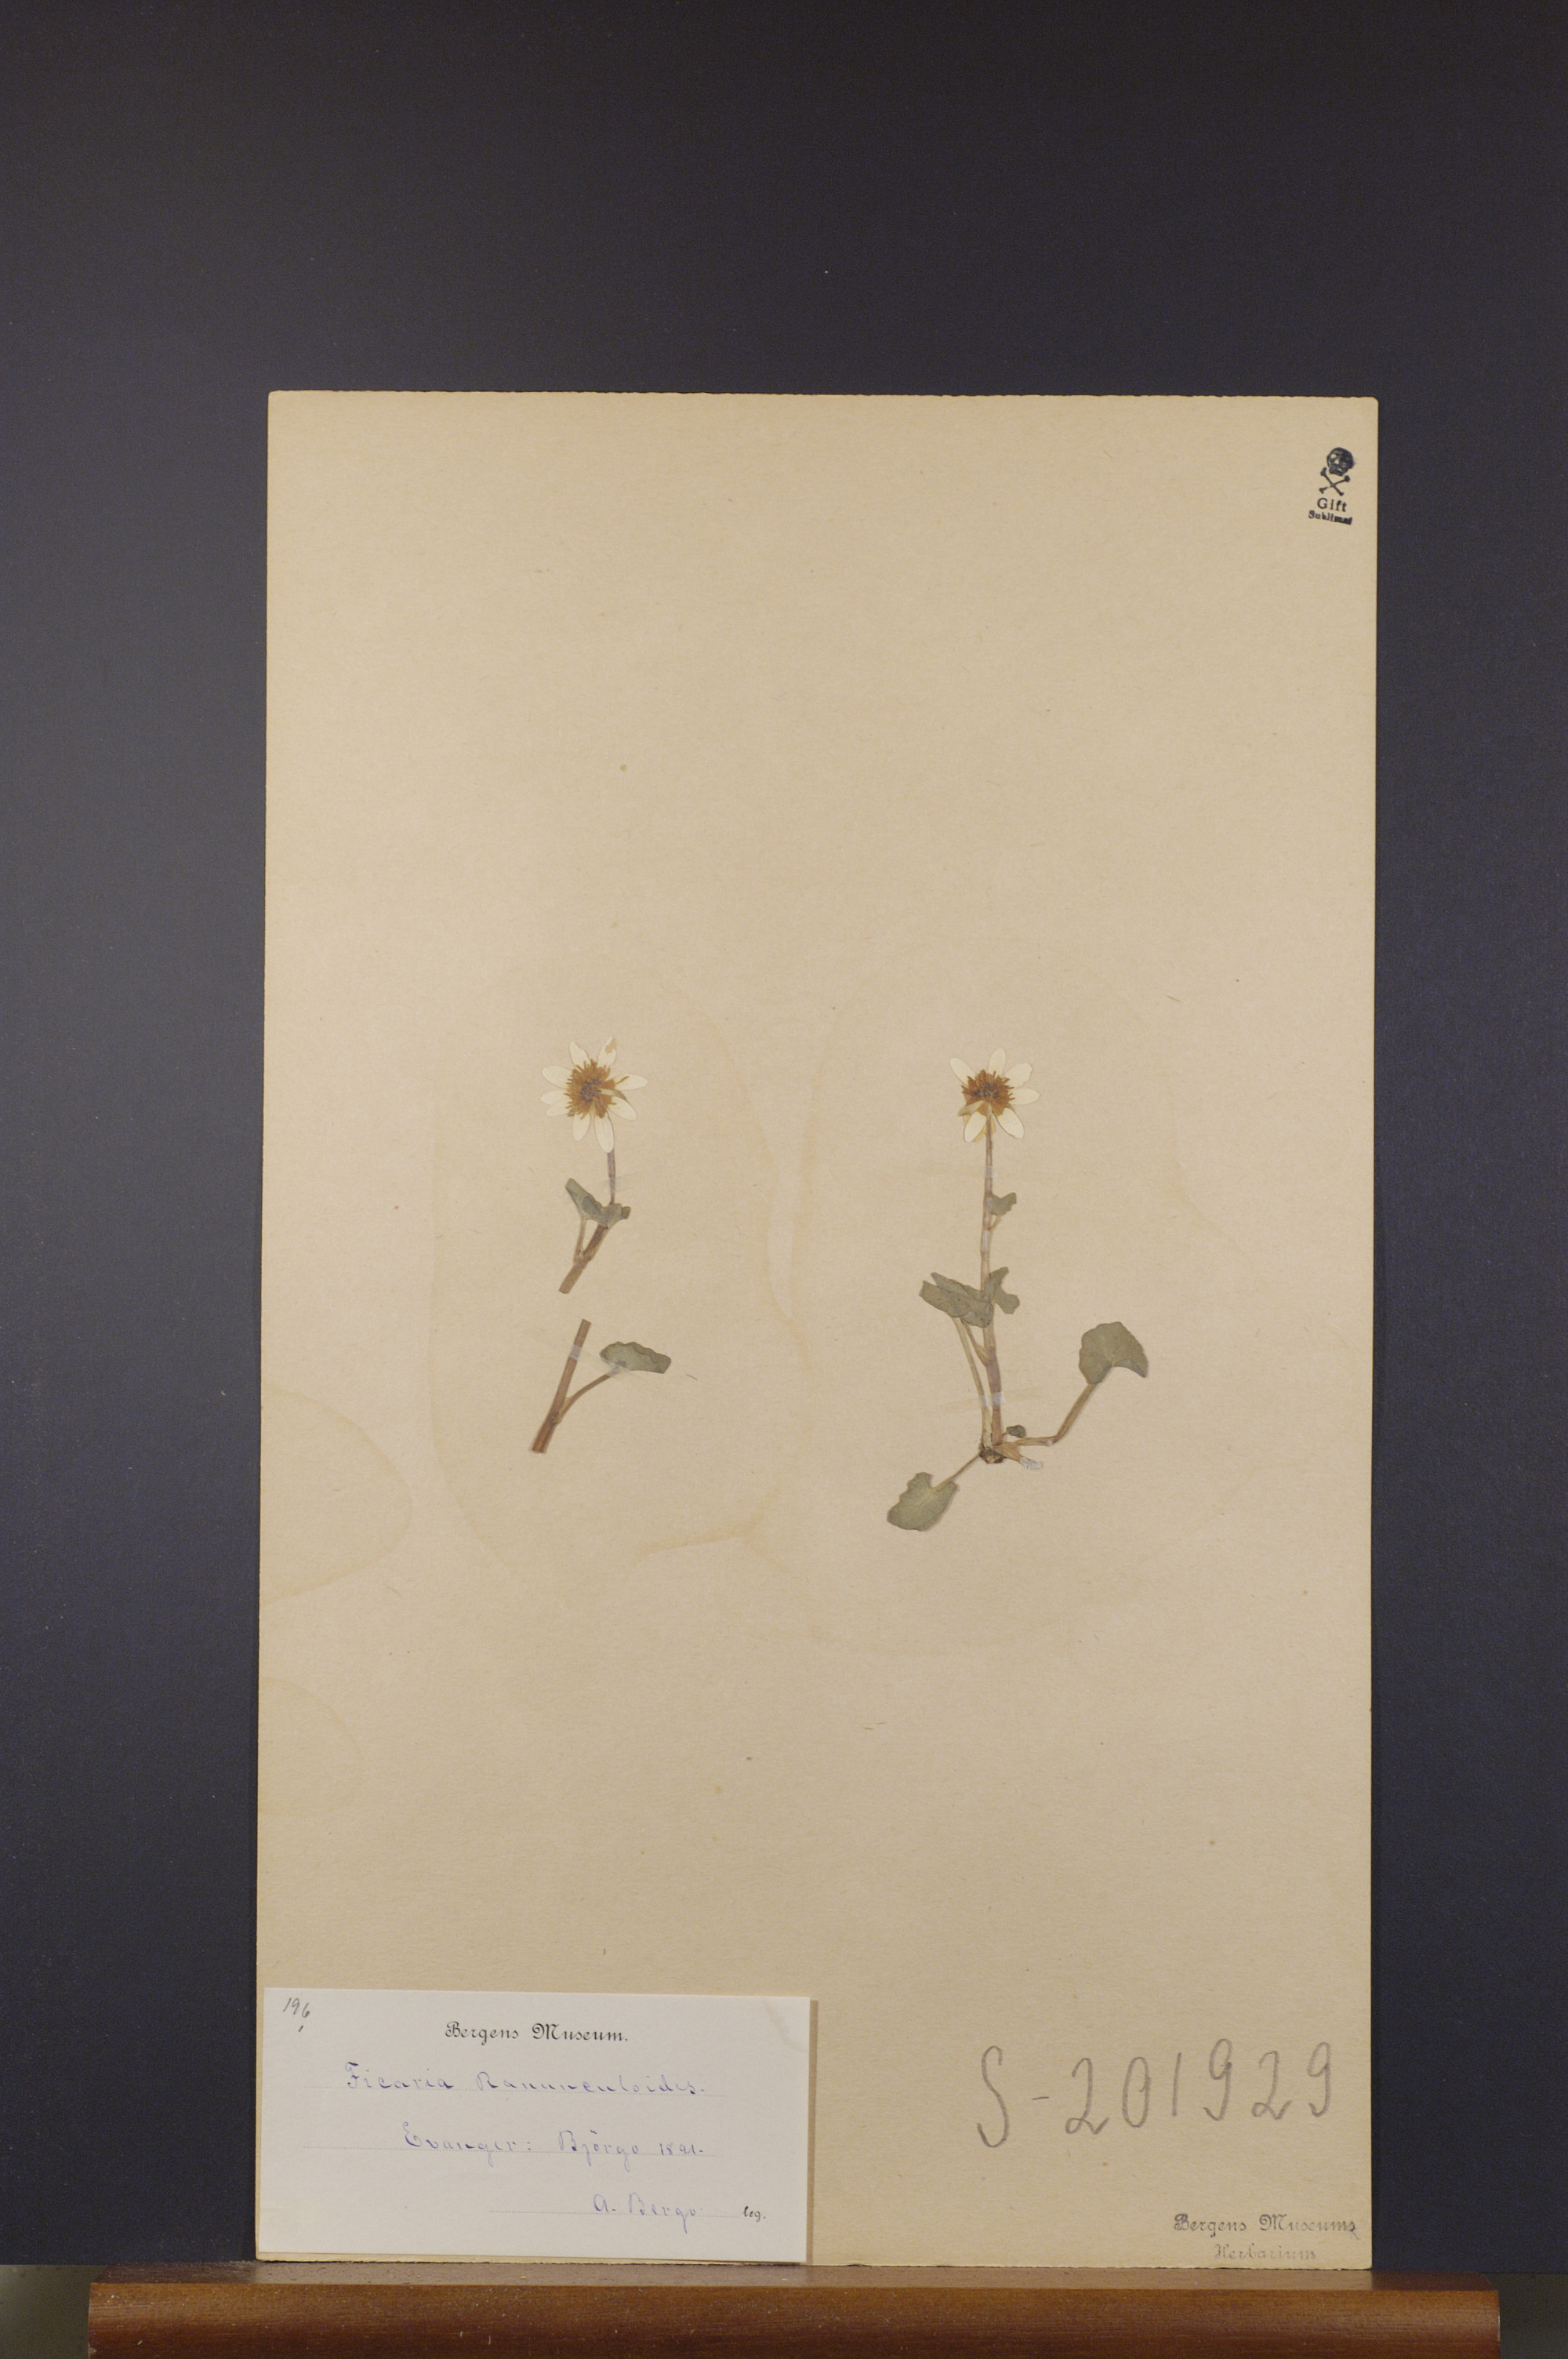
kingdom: Plantae
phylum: Tracheophyta
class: Magnoliopsida
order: Ranunculales
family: Ranunculaceae
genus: Ficaria
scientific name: Ficaria verna
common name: Lesser celandine
